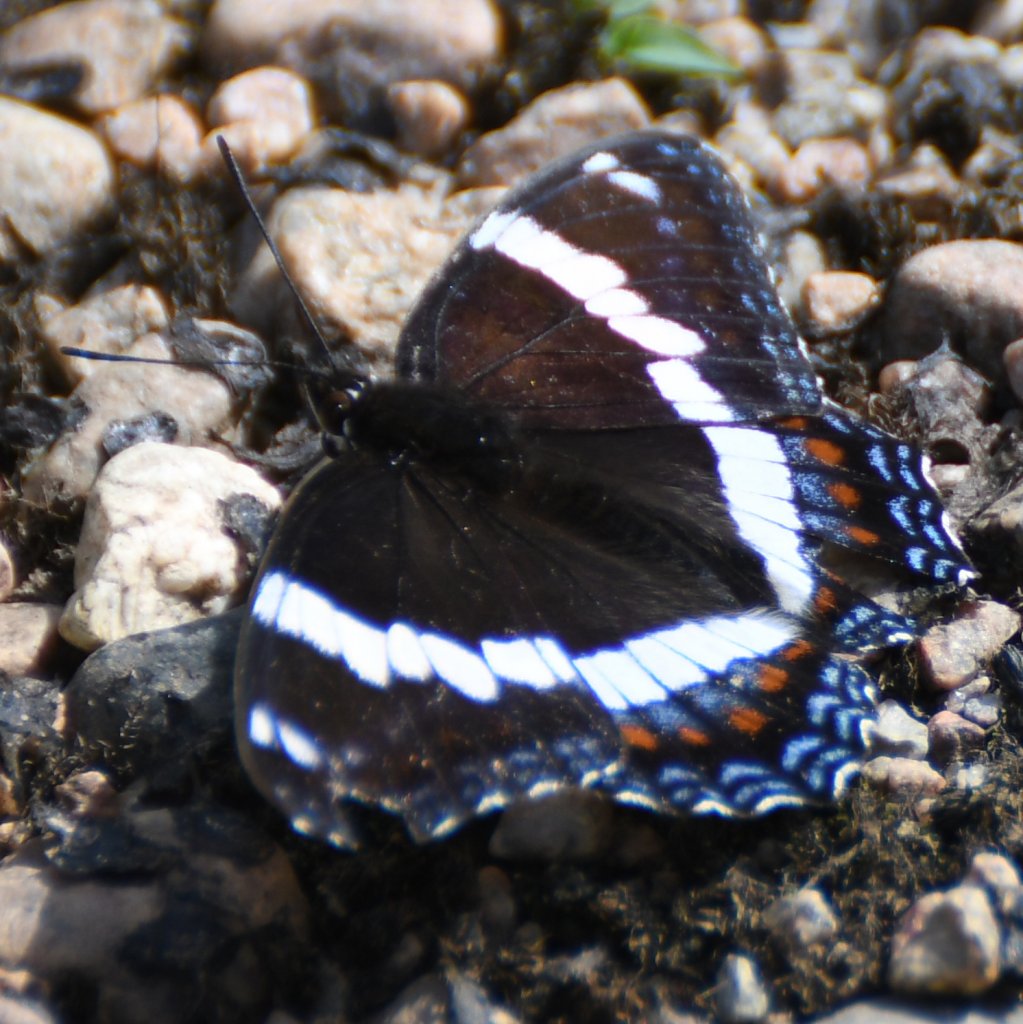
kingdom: Animalia
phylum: Arthropoda
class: Insecta
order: Lepidoptera
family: Nymphalidae
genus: Limenitis
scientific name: Limenitis arthemis
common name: Red-spotted Admiral
